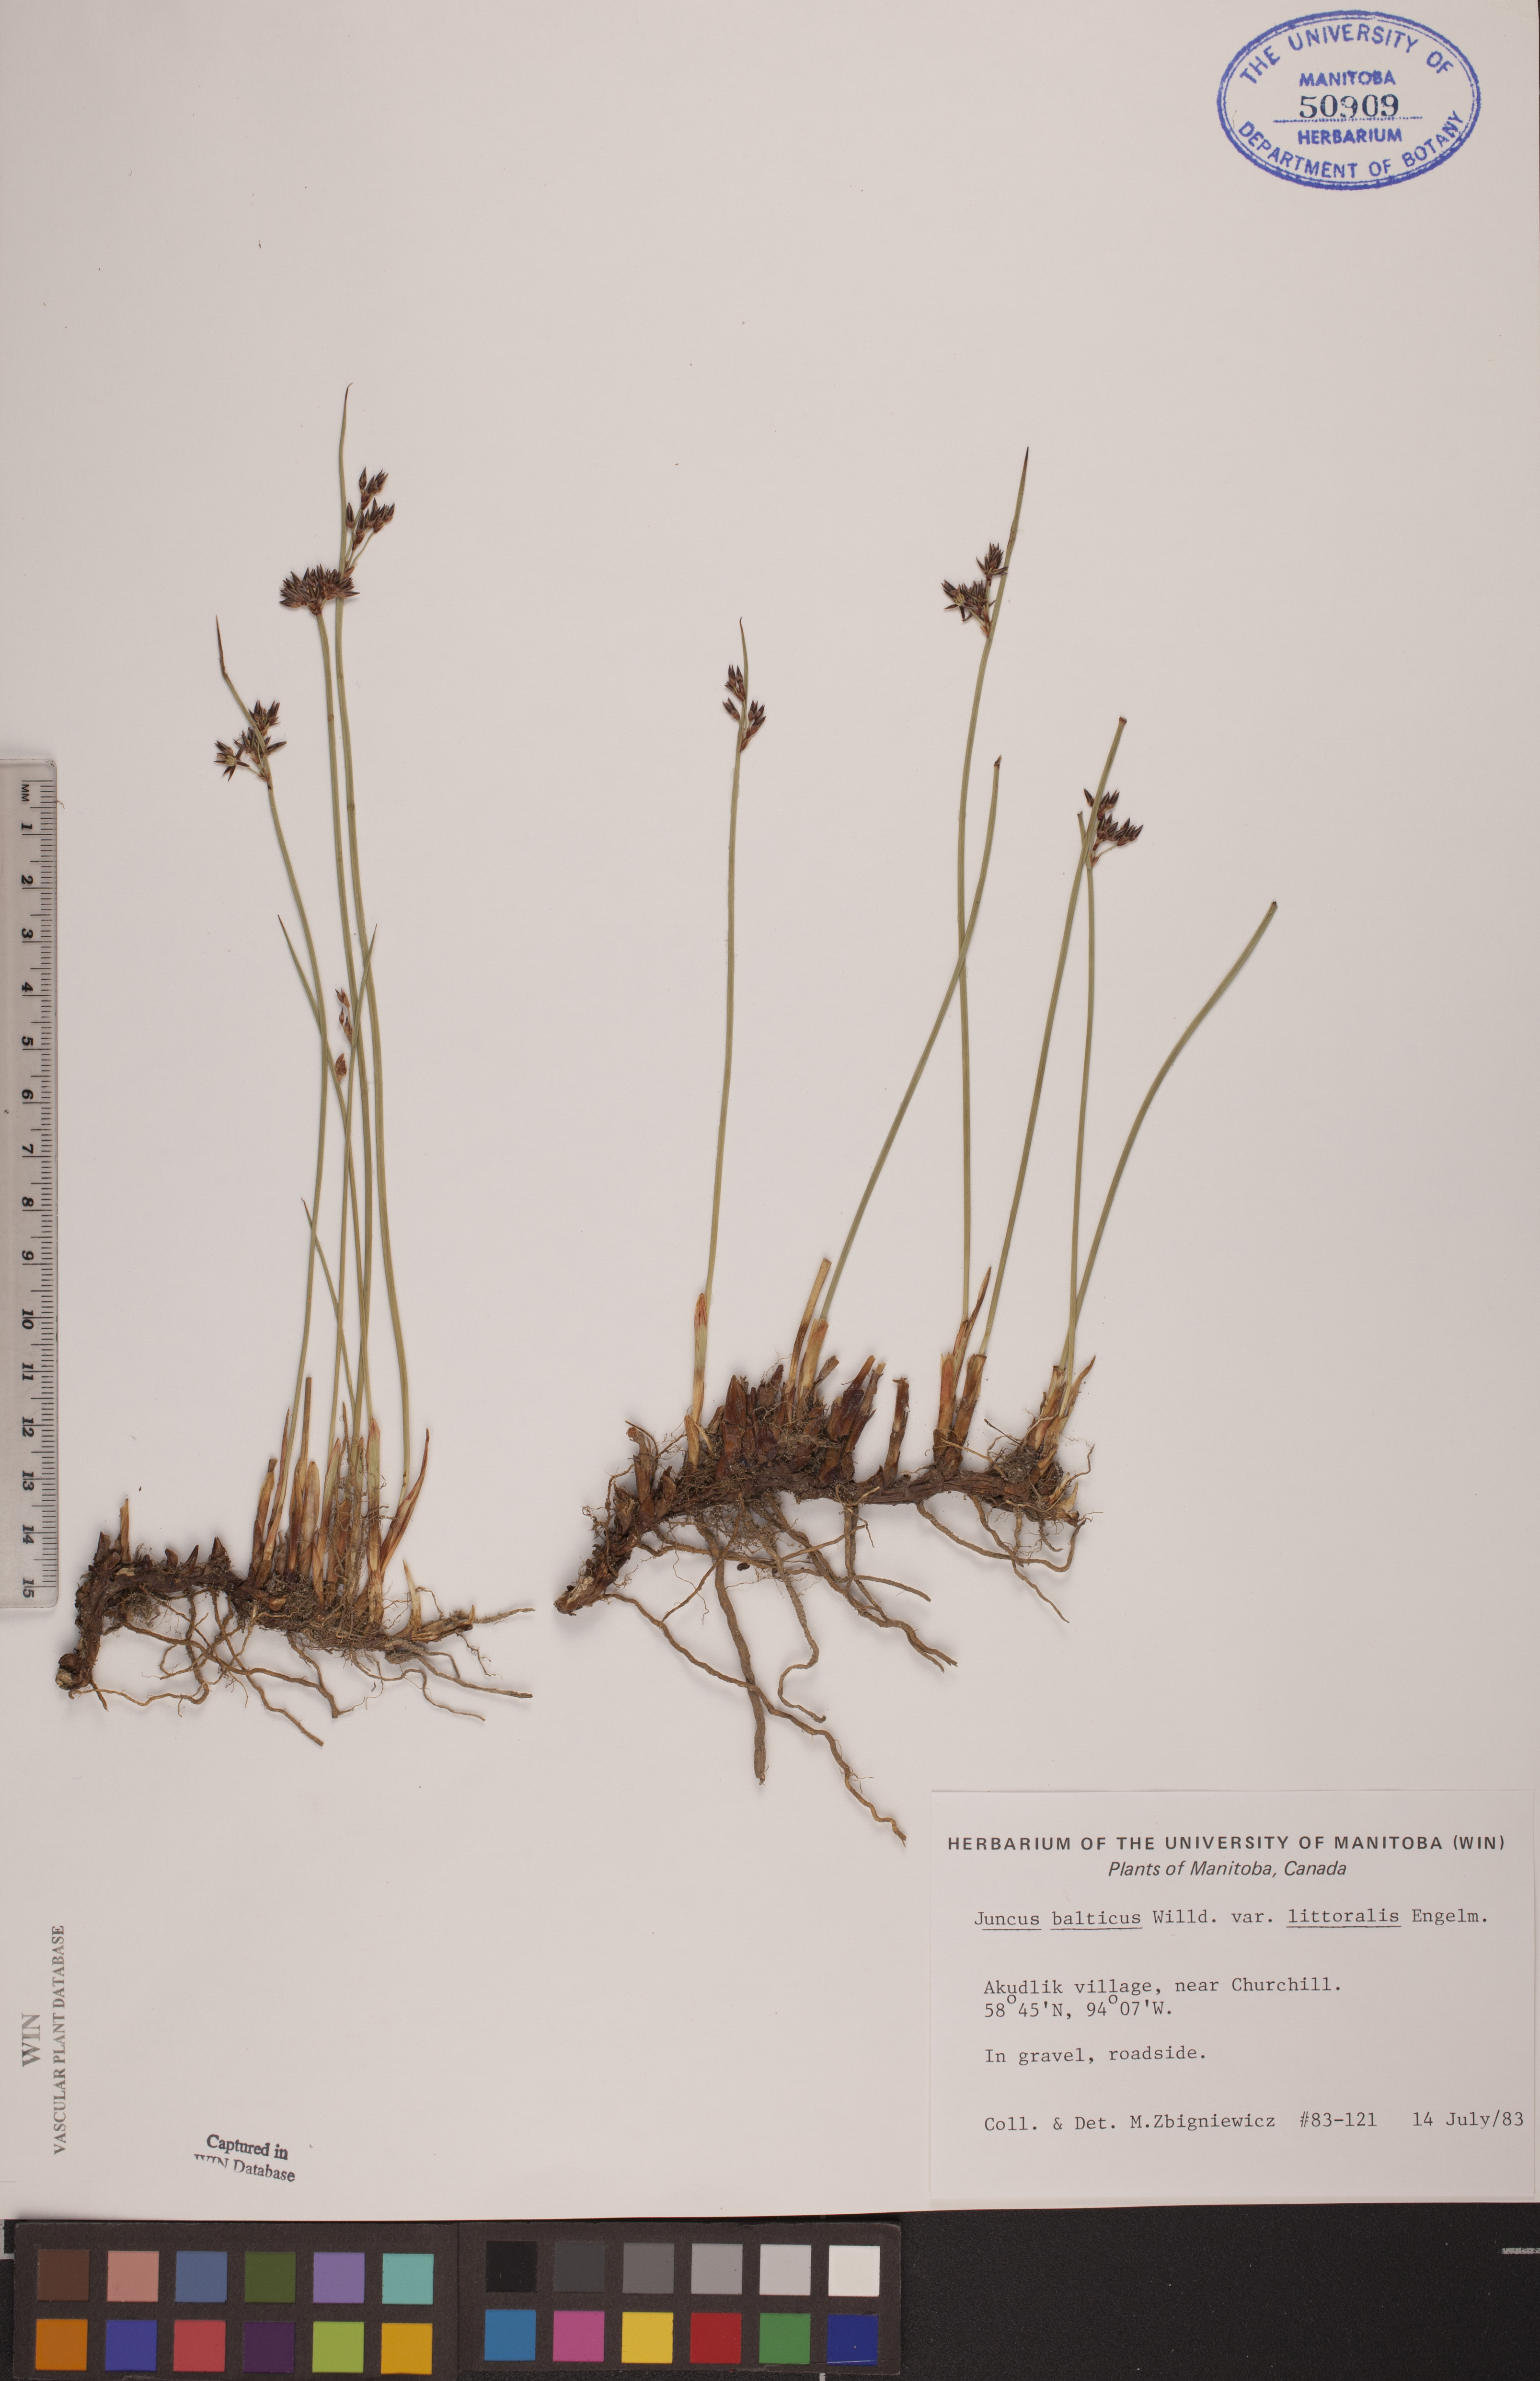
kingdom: Plantae
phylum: Tracheophyta
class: Liliopsida
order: Poales
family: Juncaceae
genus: Juncus
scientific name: Juncus balticus
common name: Baltic rush
